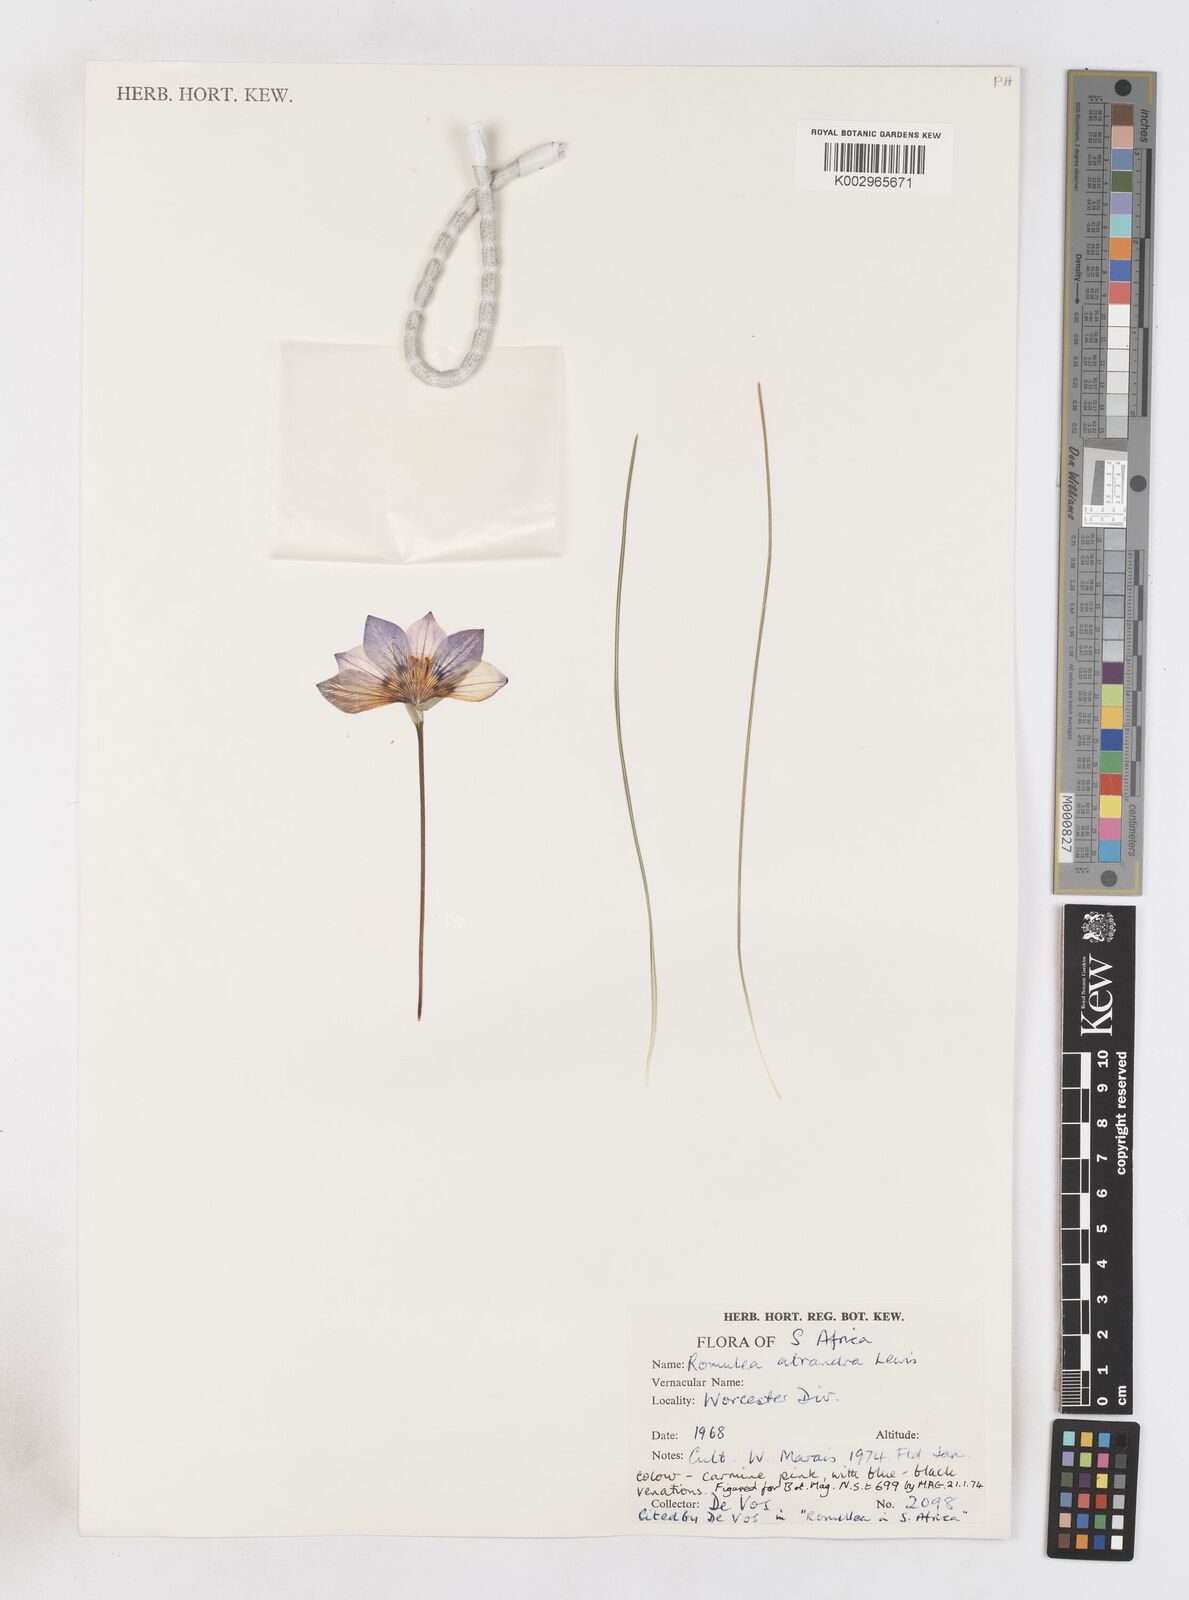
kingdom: Plantae
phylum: Tracheophyta
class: Liliopsida
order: Asparagales
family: Iridaceae
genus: Romulea
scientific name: Romulea atrandra
